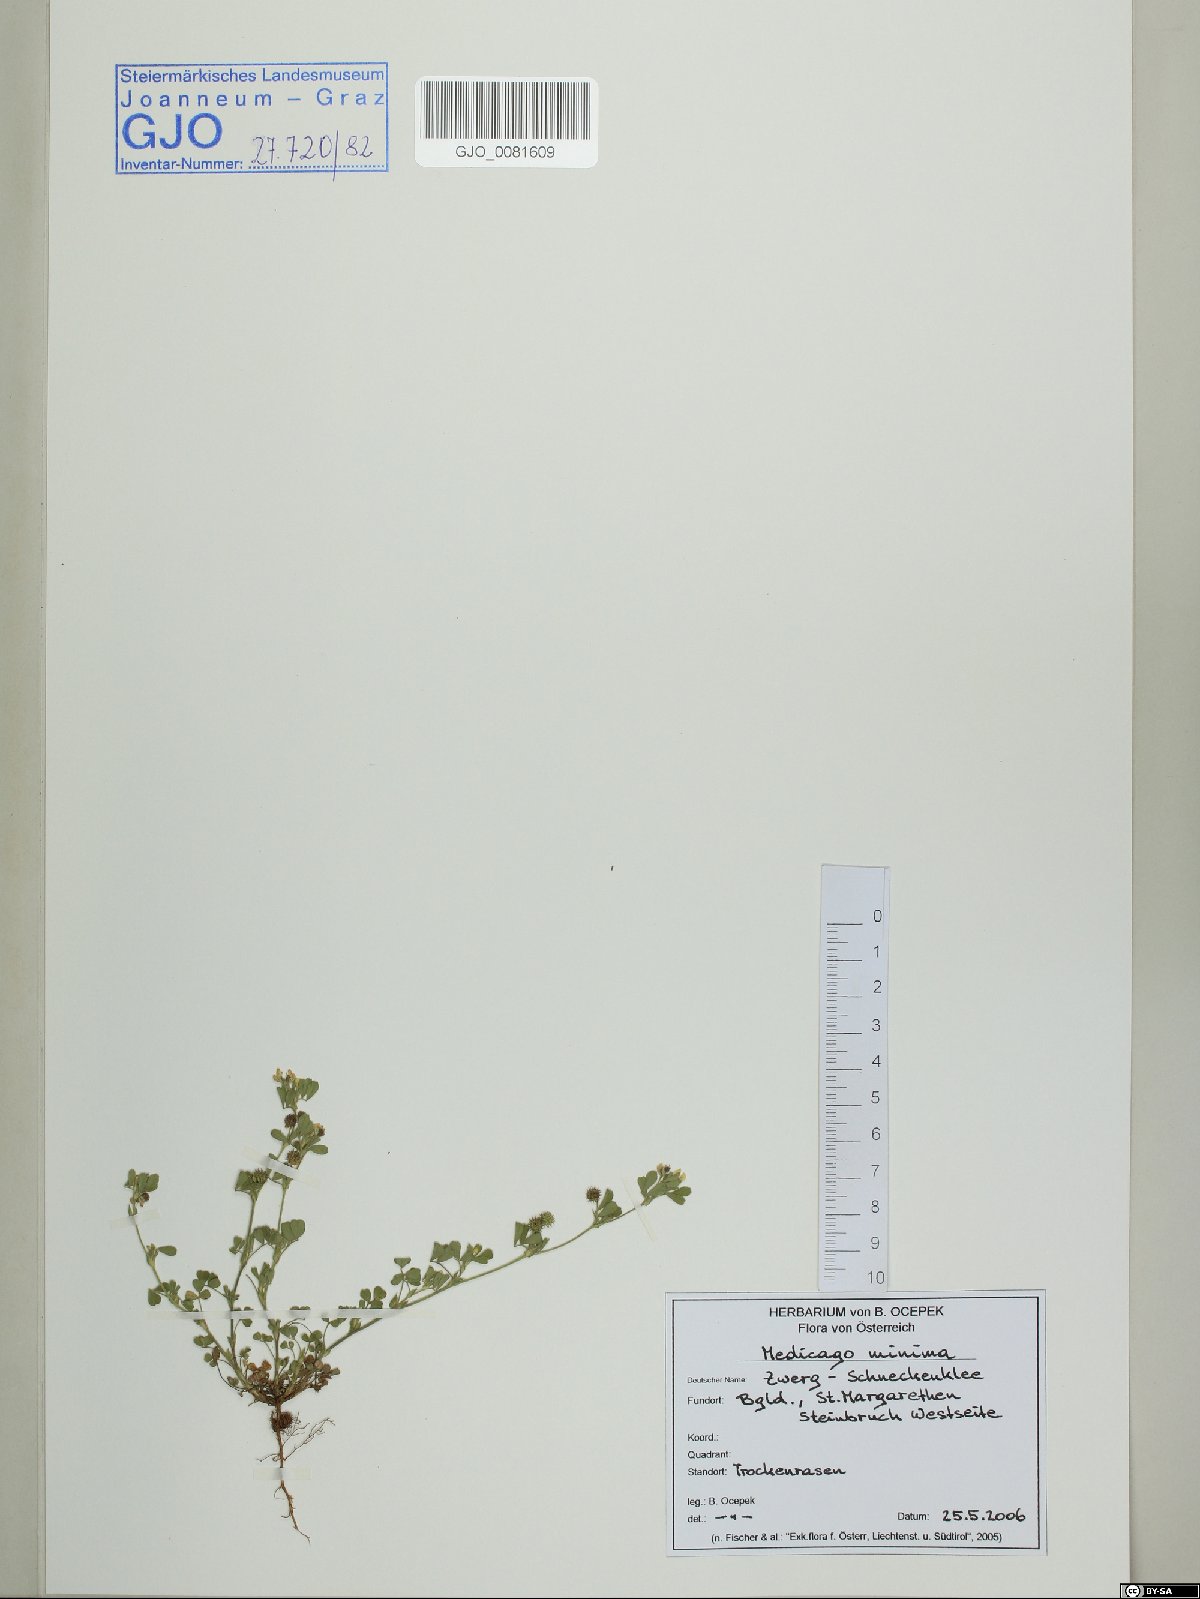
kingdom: Plantae
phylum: Tracheophyta
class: Magnoliopsida
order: Fabales
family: Fabaceae
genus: Medicago
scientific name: Medicago minima
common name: Little bur-clover
